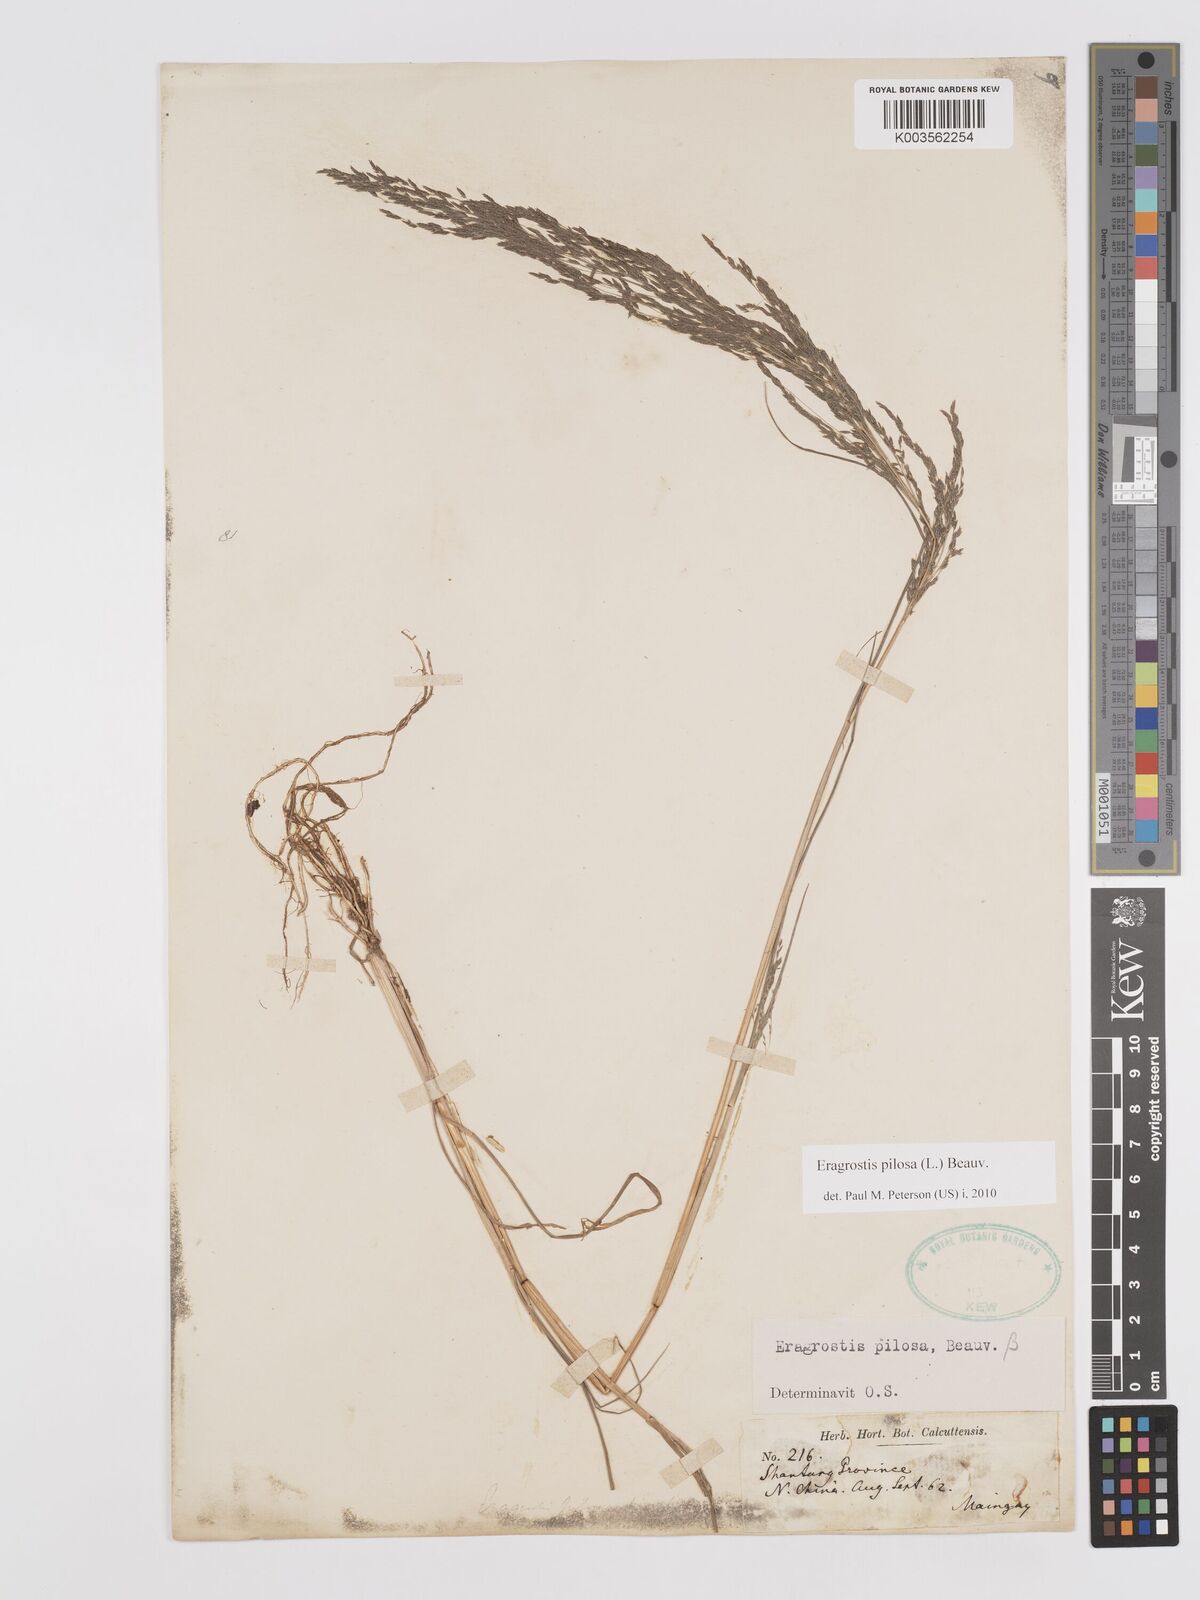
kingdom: Plantae
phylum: Tracheophyta
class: Liliopsida
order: Poales
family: Poaceae
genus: Eragrostis
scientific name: Eragrostis pilosa
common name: Indian lovegrass
